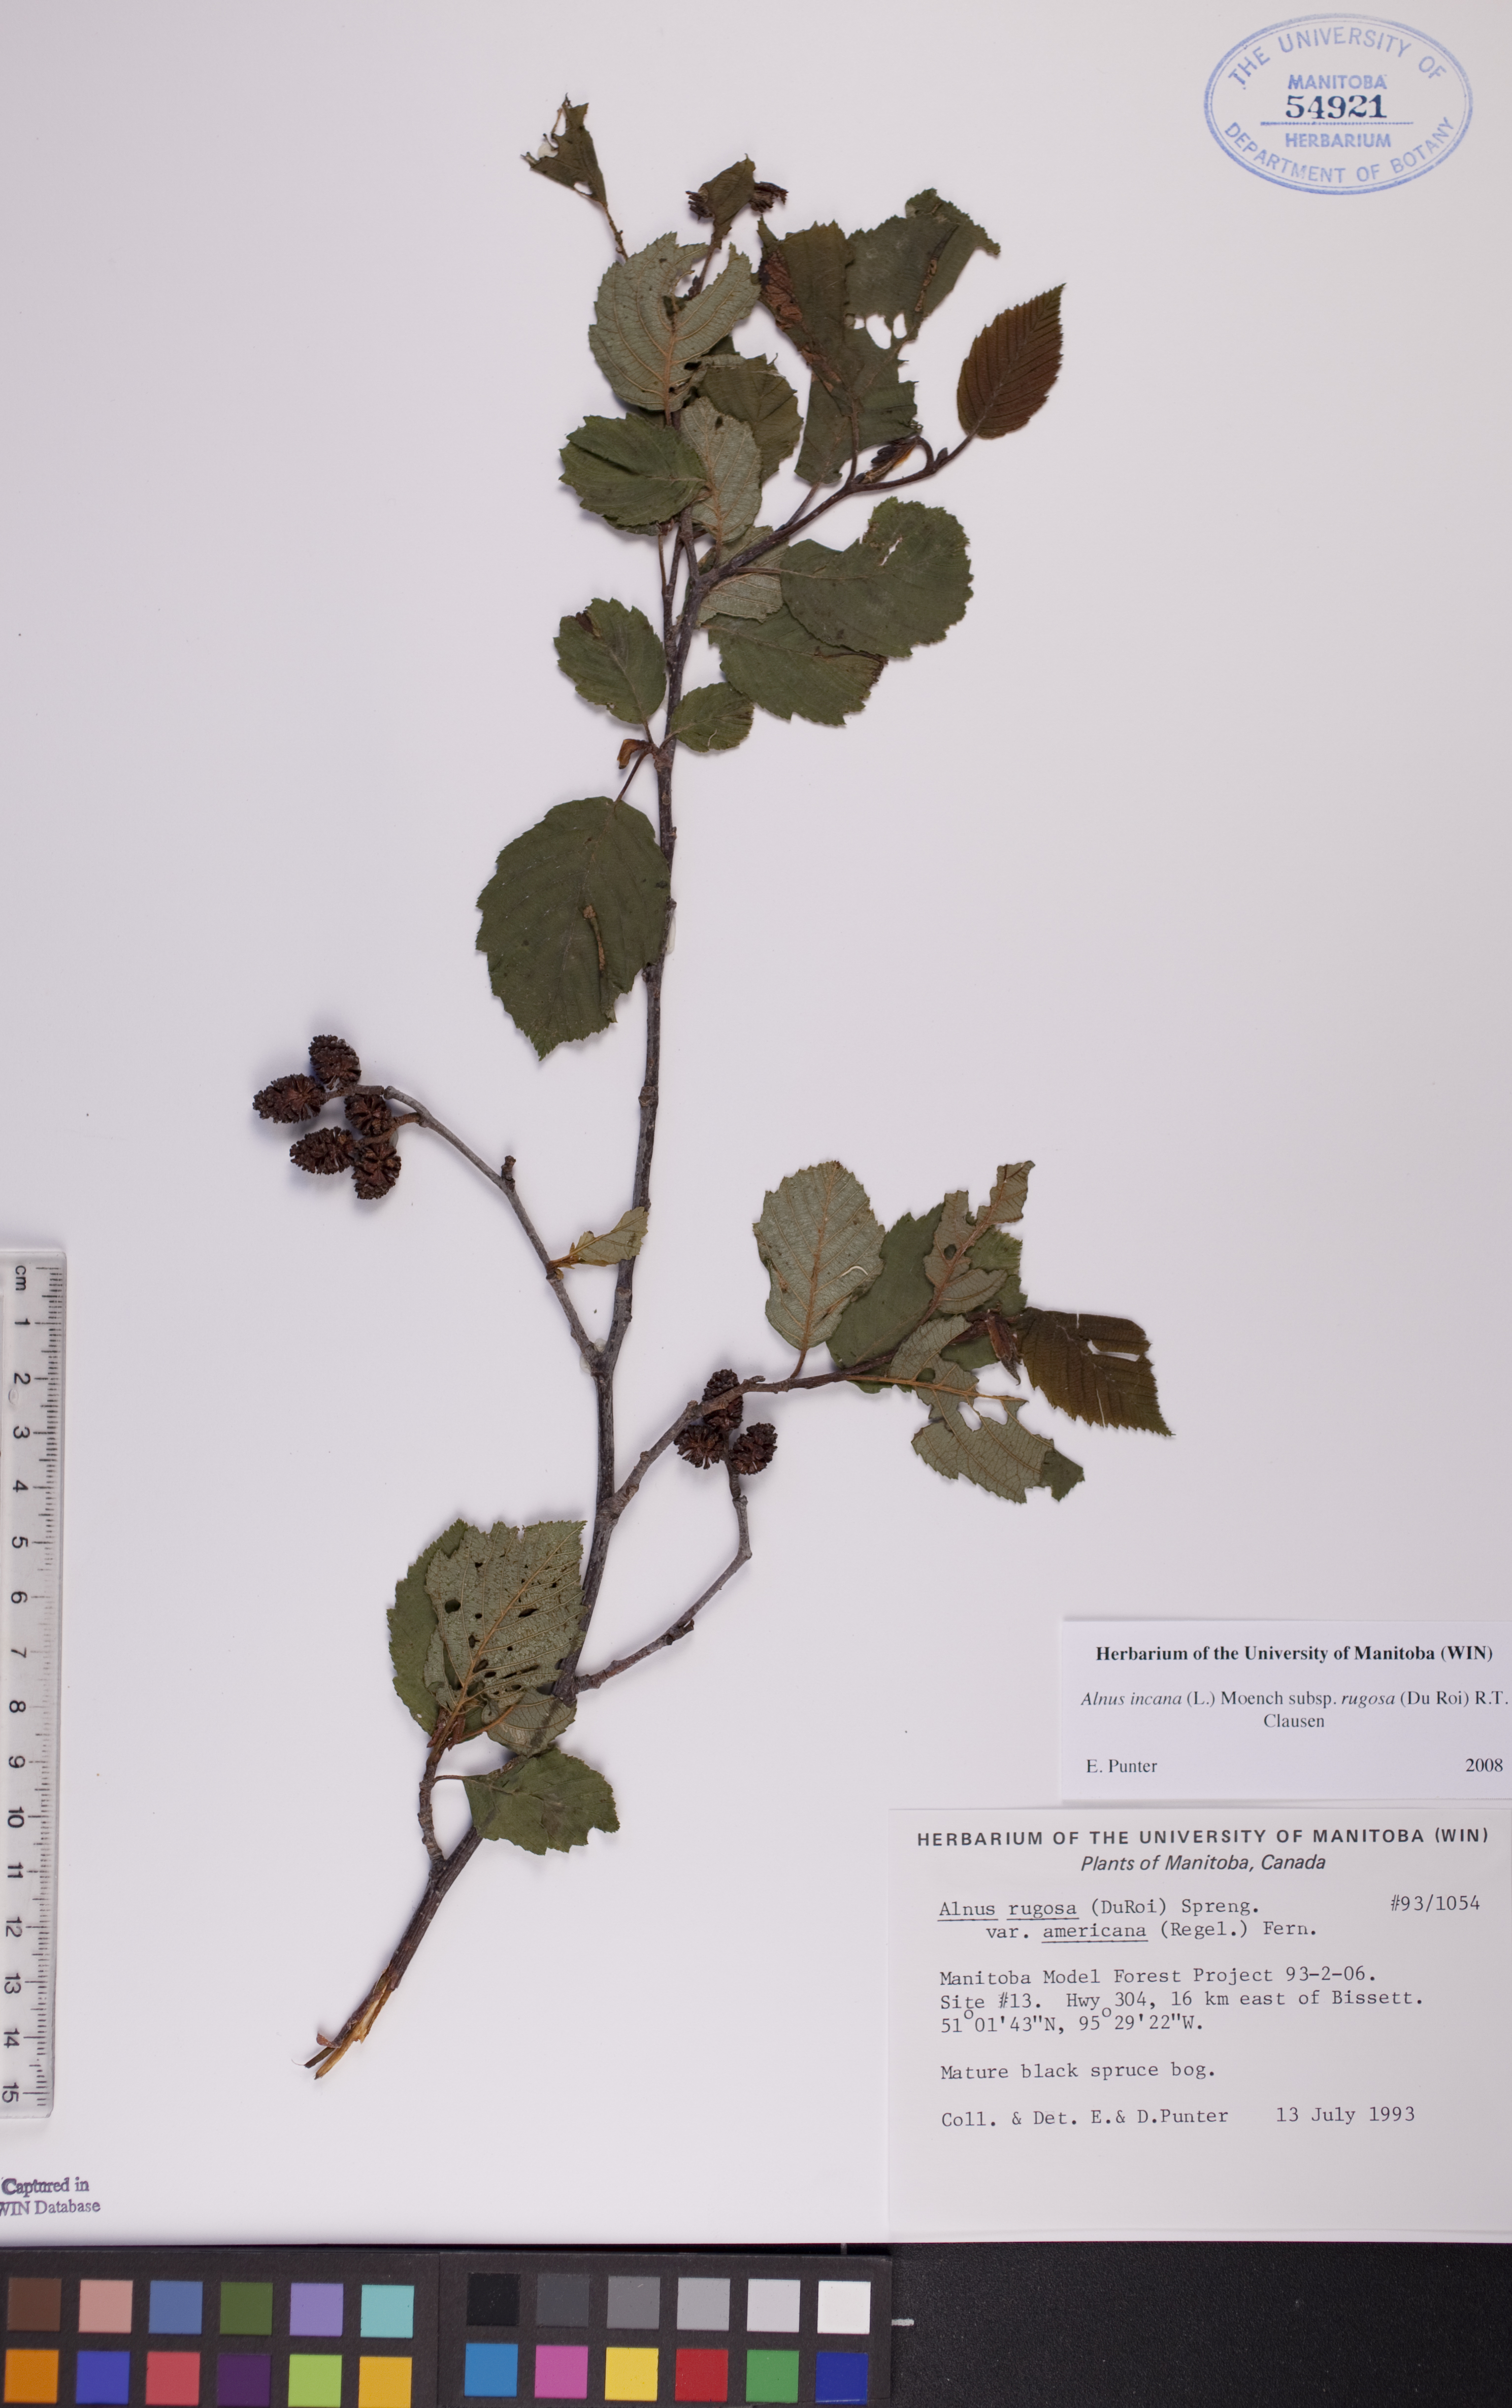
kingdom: Plantae
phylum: Tracheophyta
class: Magnoliopsida
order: Fagales
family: Betulaceae
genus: Alnus
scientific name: Alnus incana
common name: Grey alder
